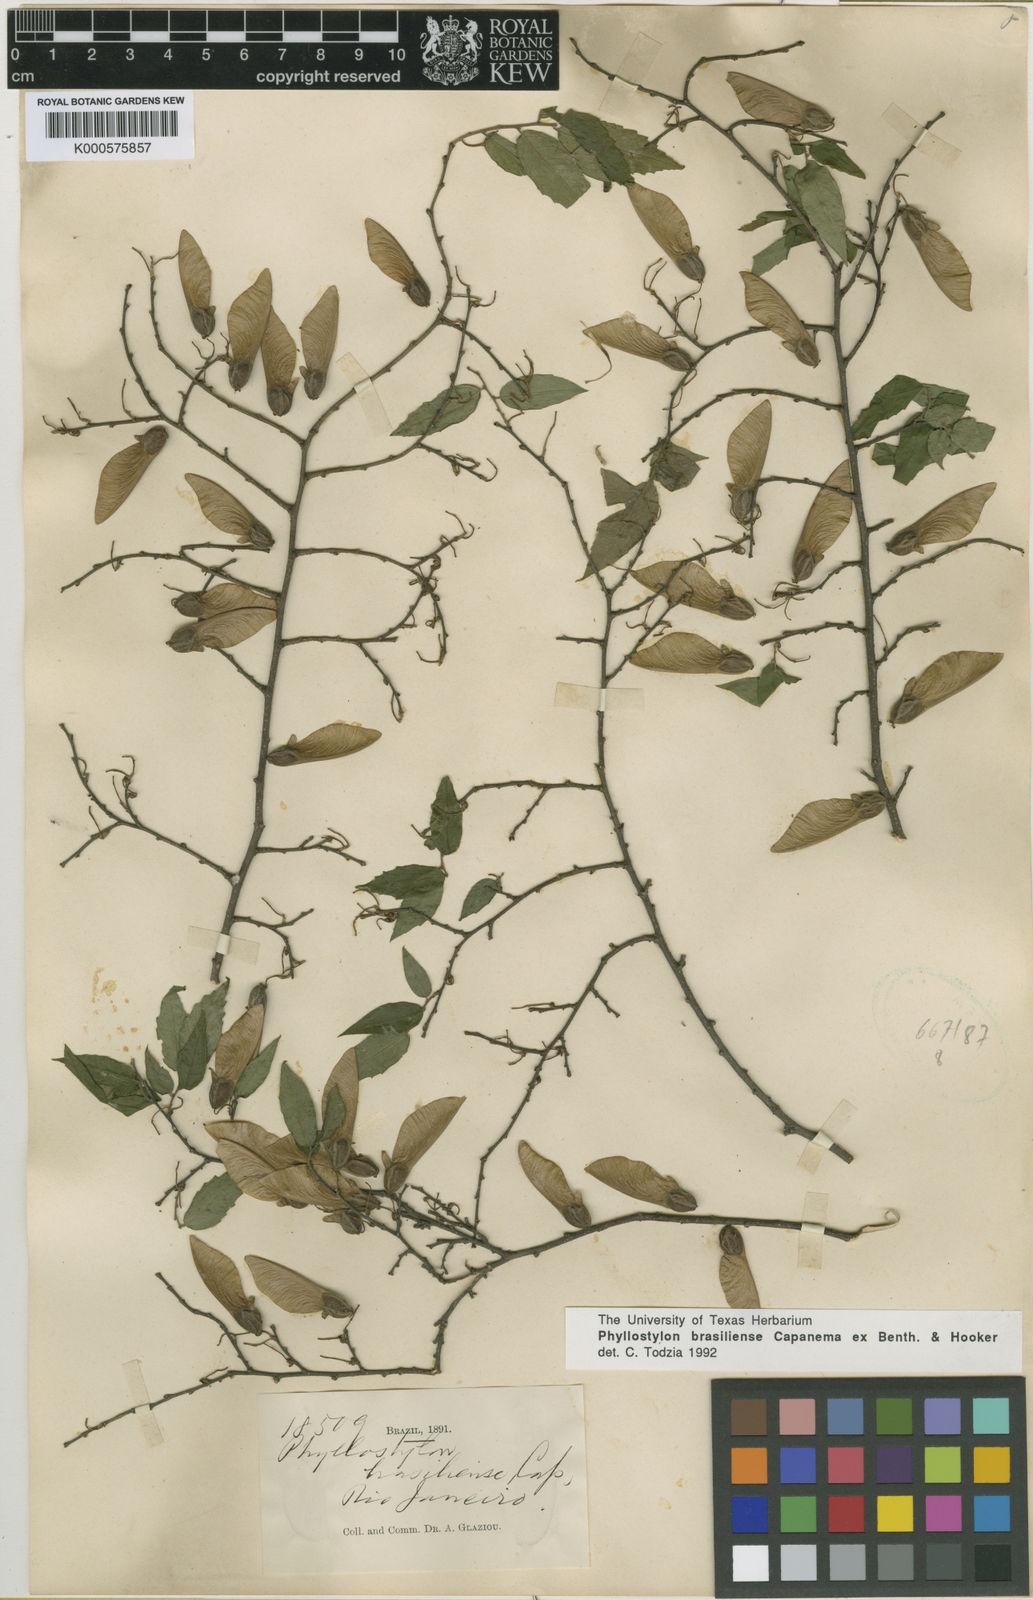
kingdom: Plantae
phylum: Tracheophyta
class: Magnoliopsida
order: Rosales
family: Ulmaceae
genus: Phyllostylon
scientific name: Phyllostylon brasiliensis
